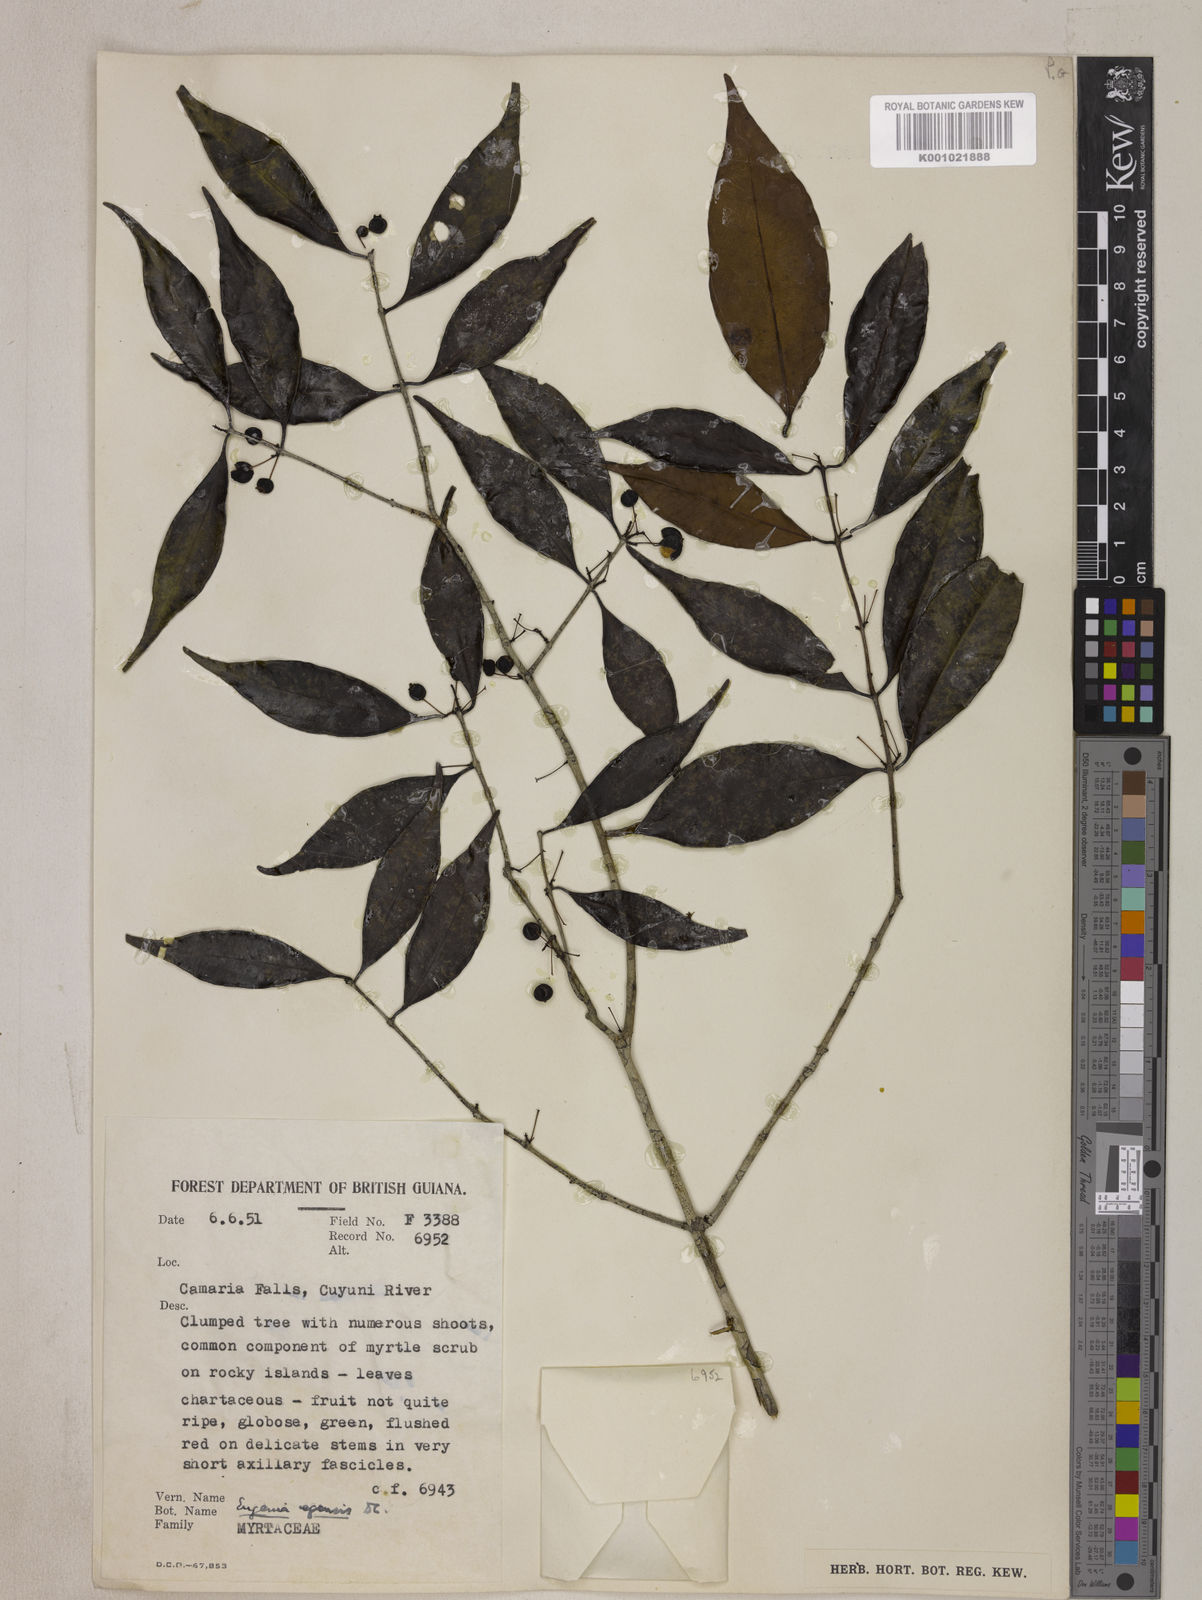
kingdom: Plantae
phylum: Tracheophyta
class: Magnoliopsida
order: Myrtales
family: Myrtaceae
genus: Eugenia
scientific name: Eugenia egensis
